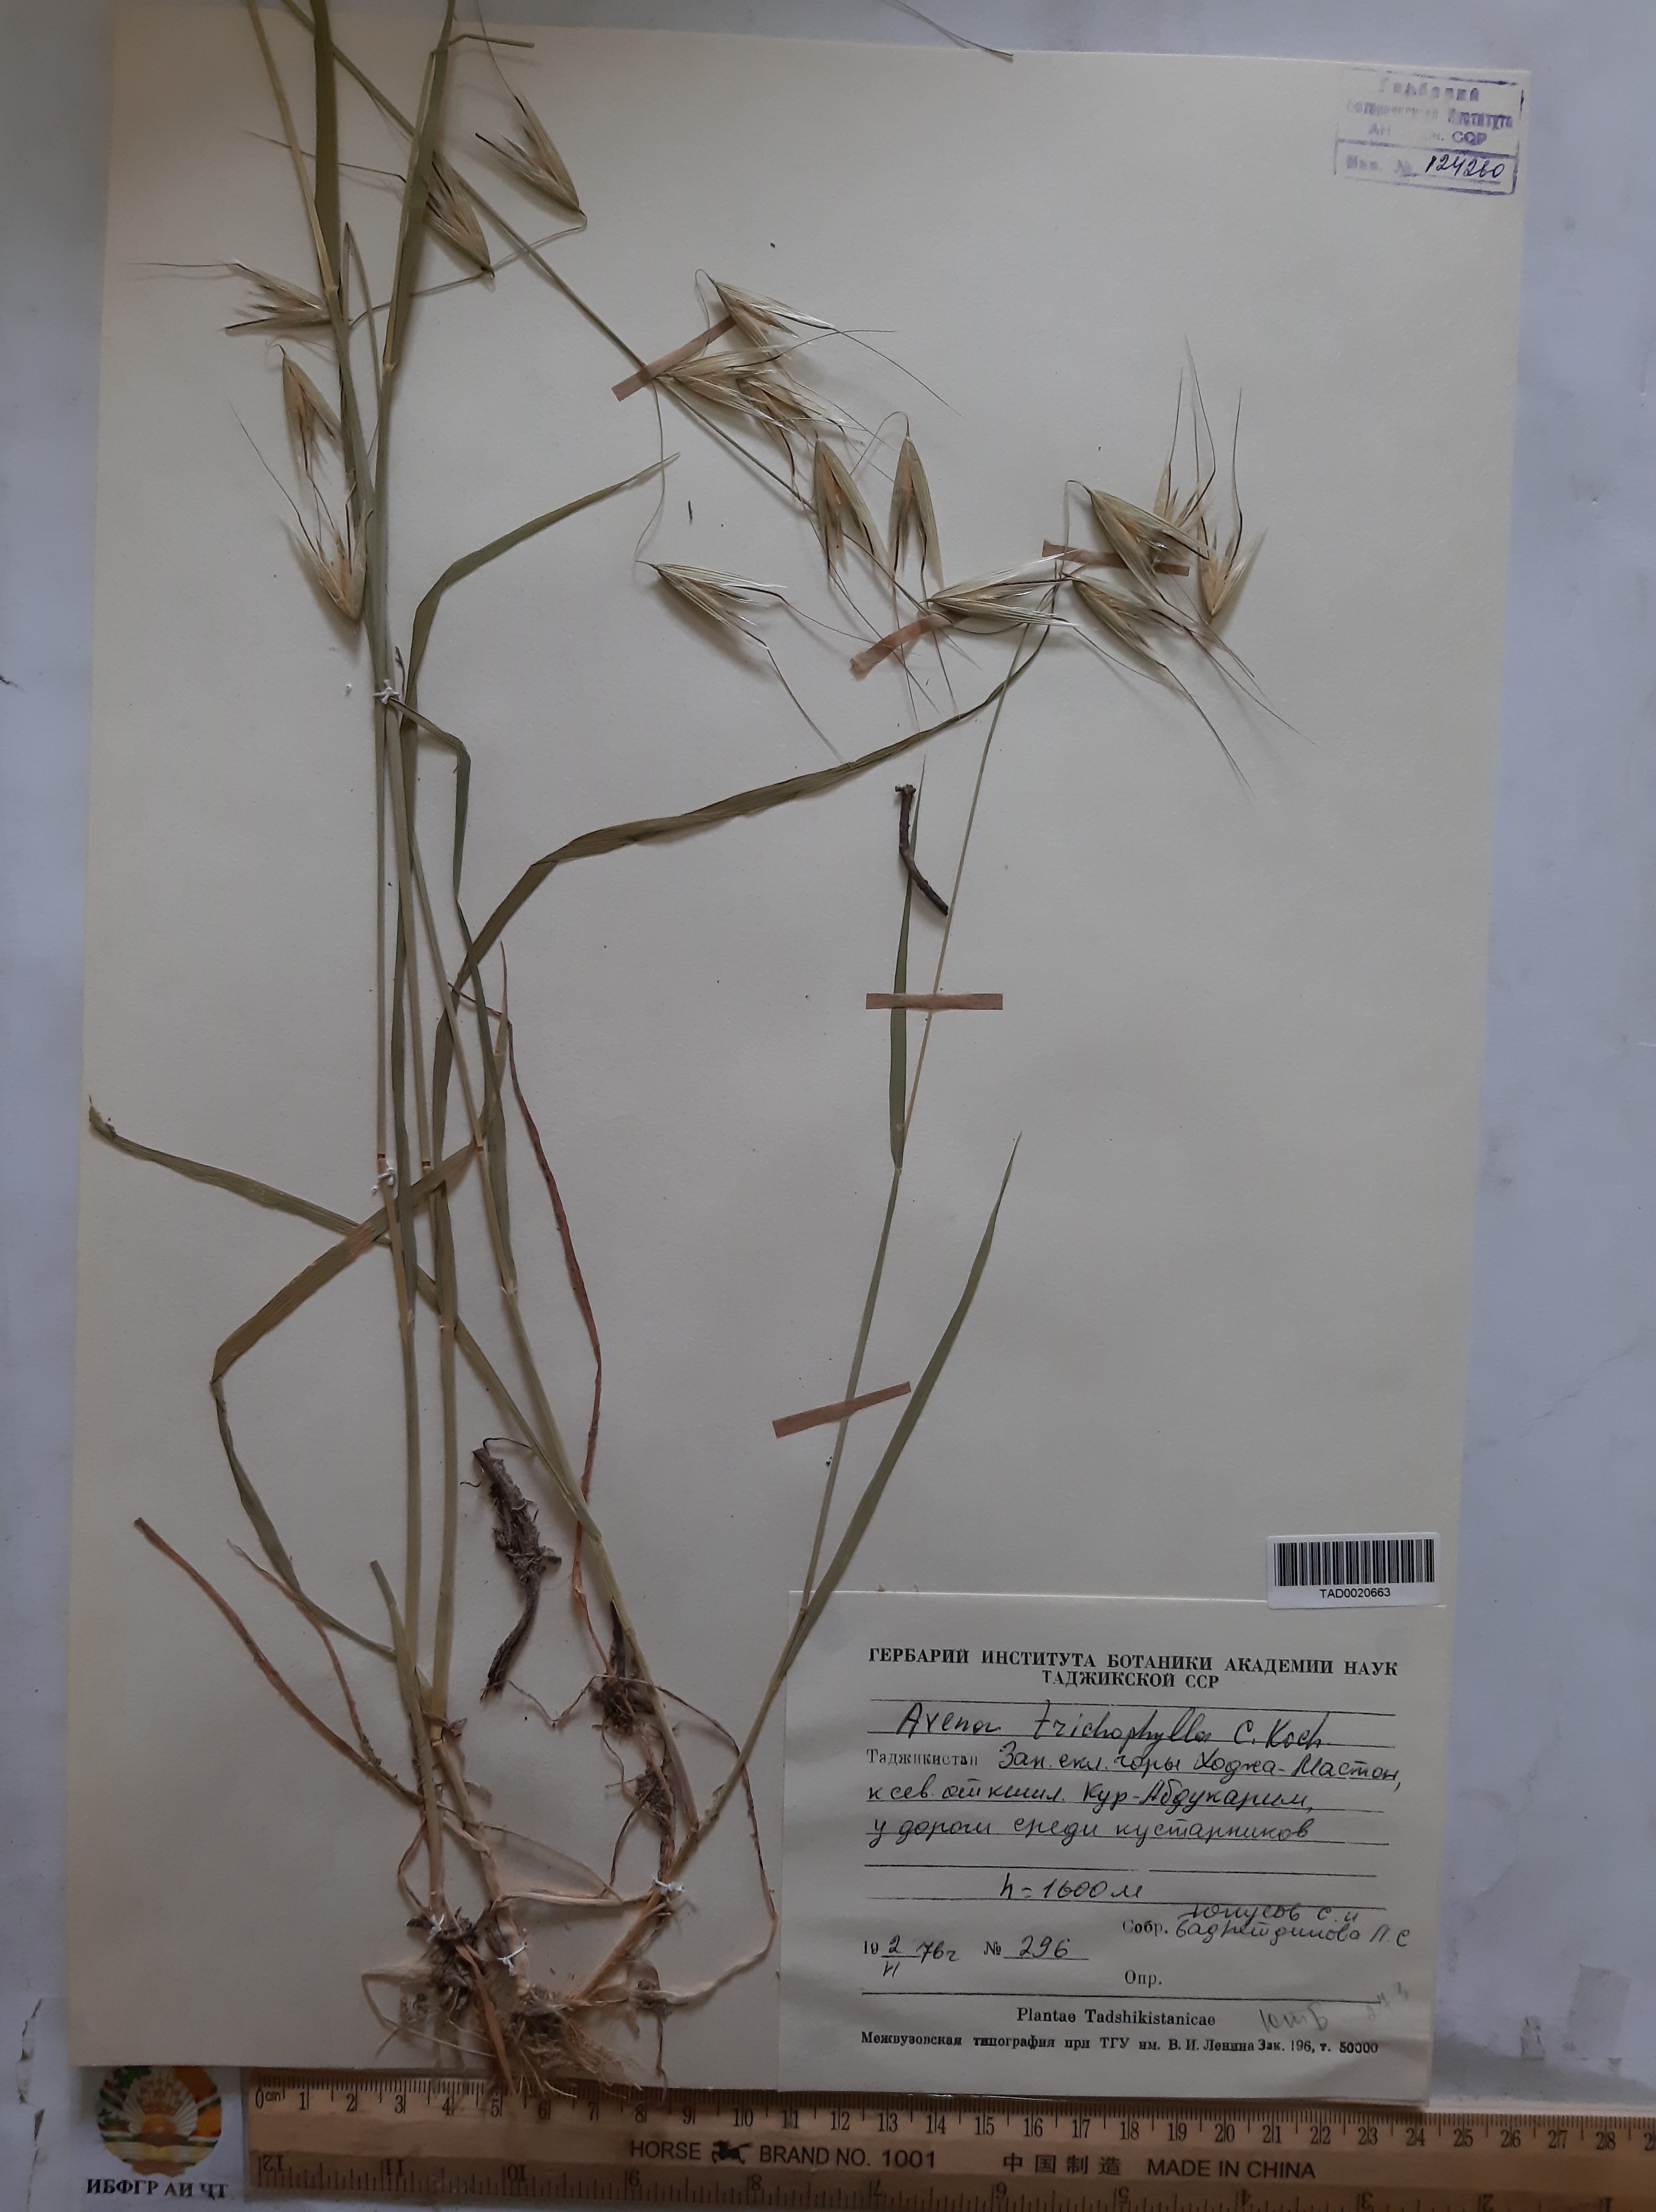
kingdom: Plantae
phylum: Tracheophyta
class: Liliopsida
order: Poales
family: Poaceae
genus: Avena
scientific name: Avena sterilis
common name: Animated oat
